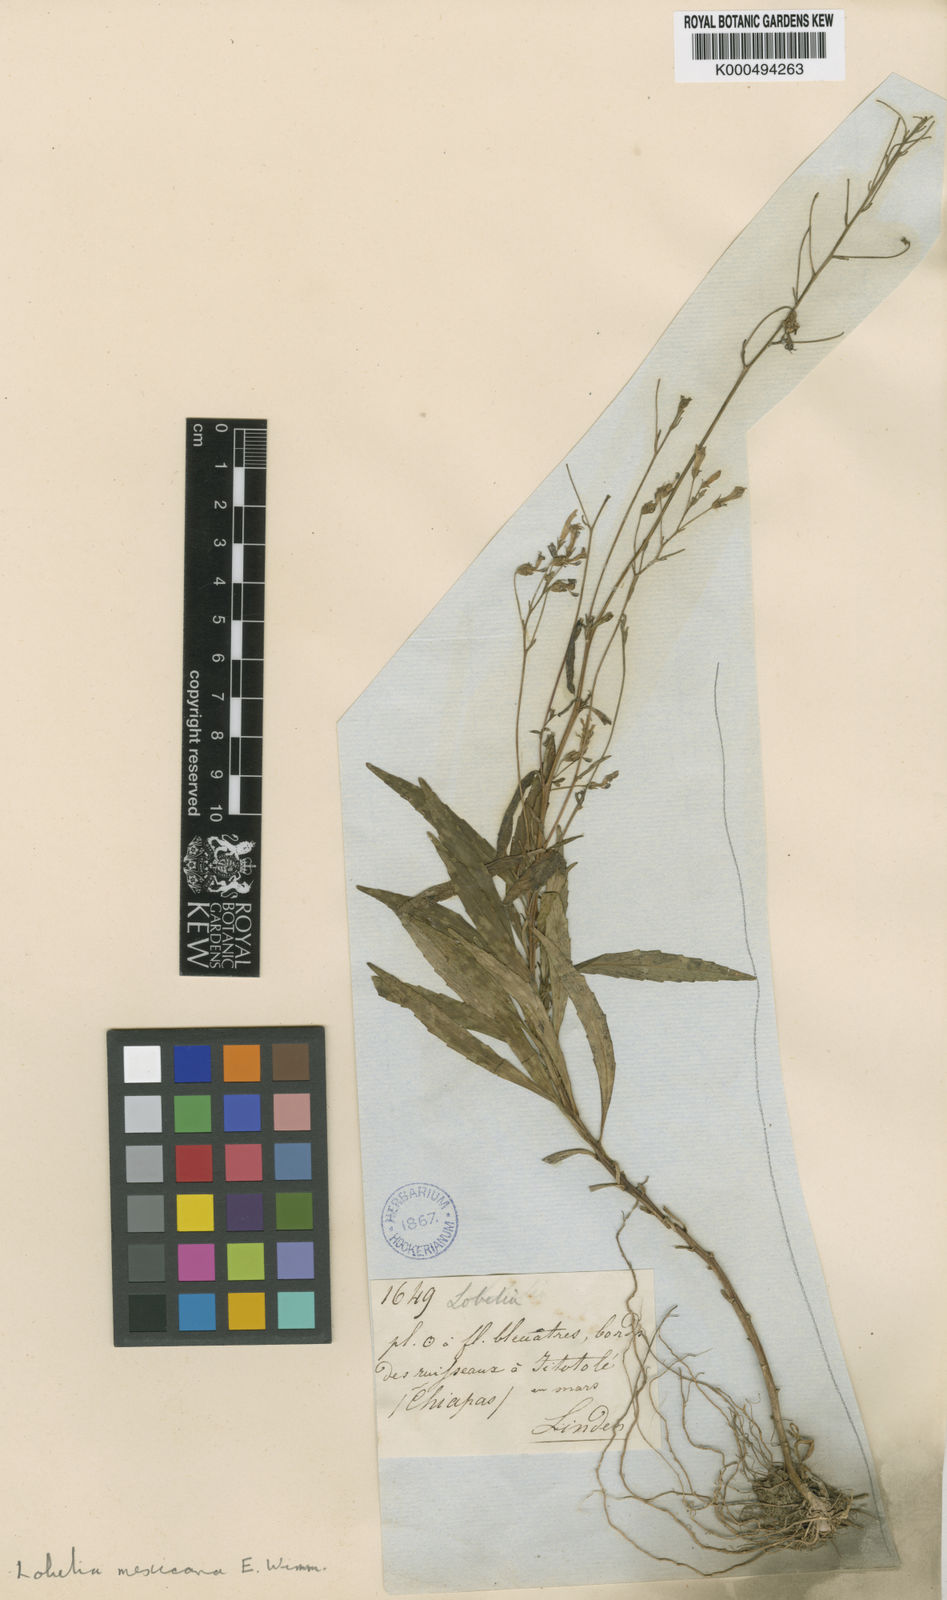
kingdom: Plantae
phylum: Tracheophyta
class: Magnoliopsida
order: Asterales
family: Campanulaceae
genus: Lobelia
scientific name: Lobelia mexicana
